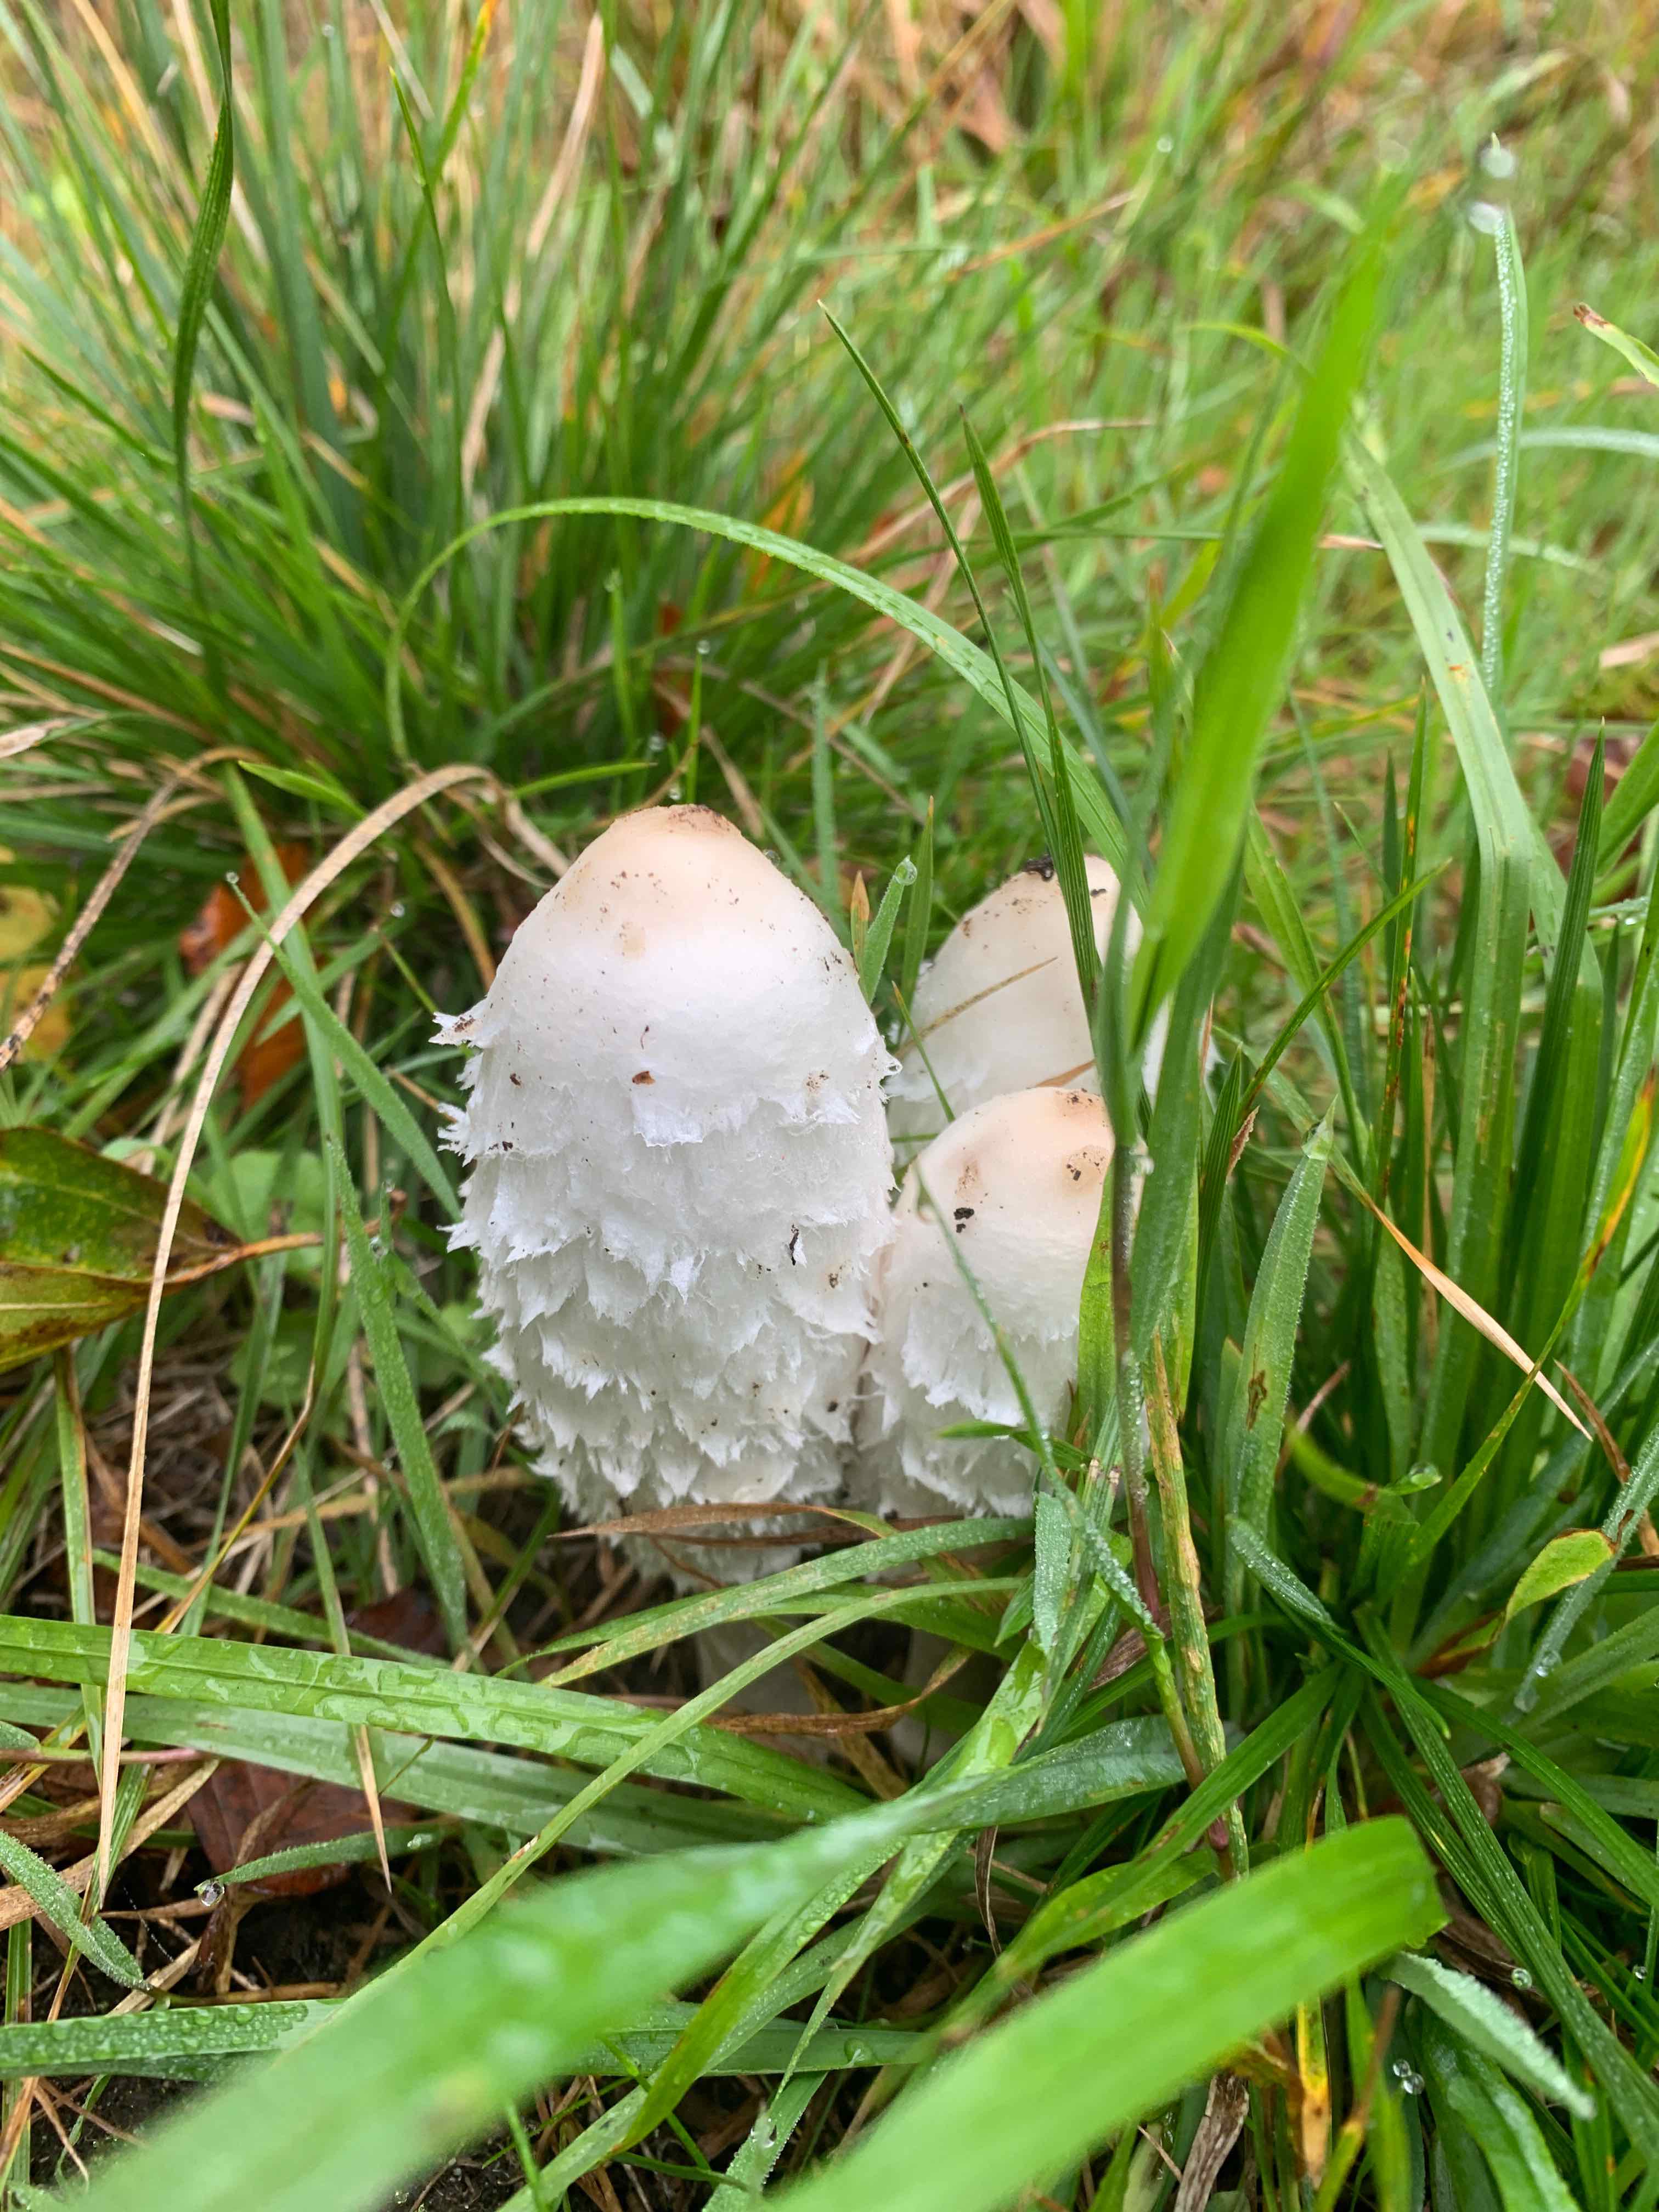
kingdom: Fungi
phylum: Basidiomycota
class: Agaricomycetes
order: Agaricales
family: Agaricaceae
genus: Coprinus
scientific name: Coprinus comatus
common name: stor parykhat
